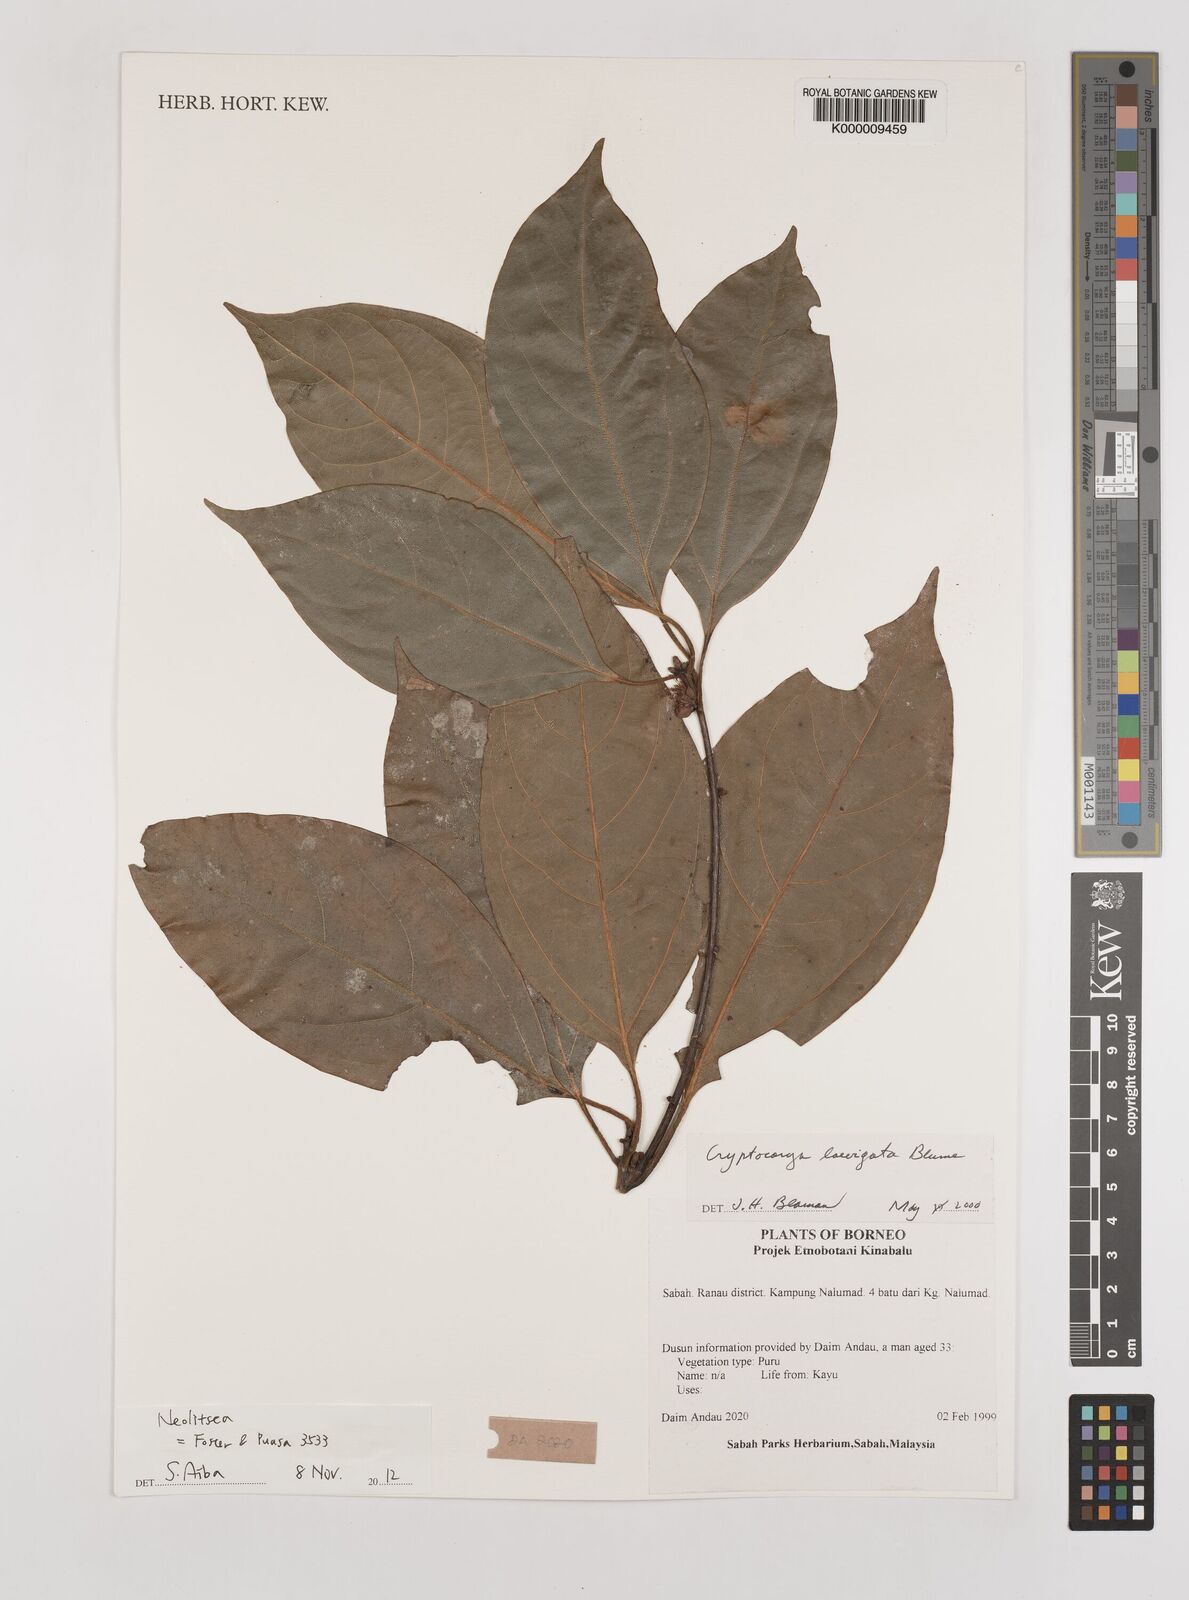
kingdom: Plantae
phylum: Tracheophyta
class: Magnoliopsida
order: Laurales
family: Lauraceae
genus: Cryptocarya
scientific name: Cryptocarya laevigata
